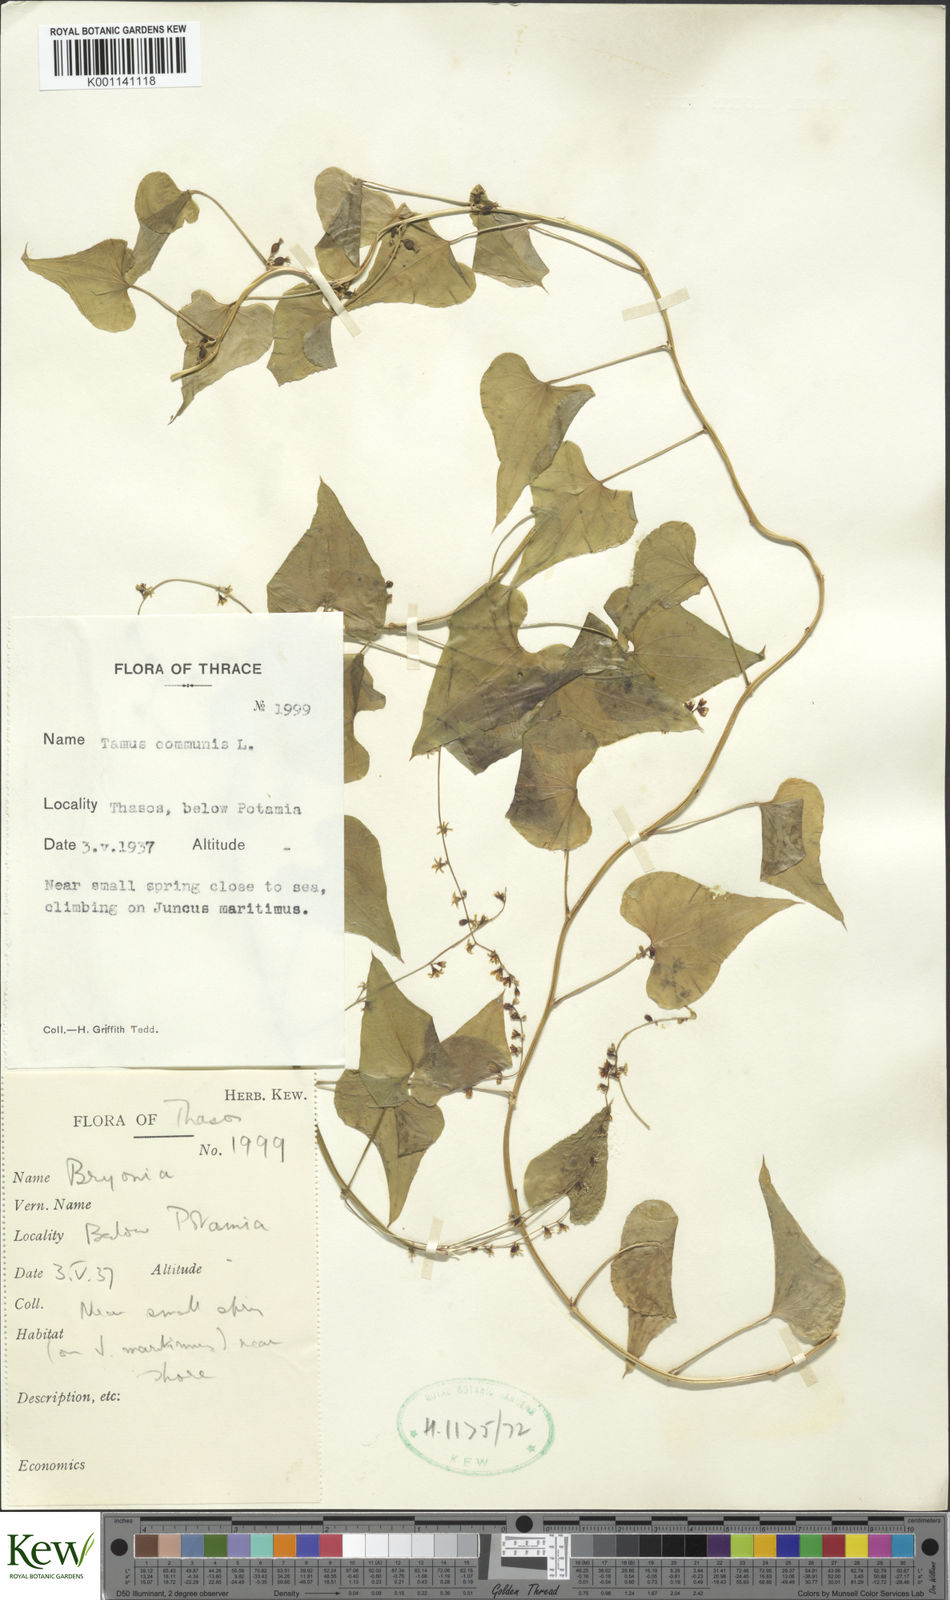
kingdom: Plantae
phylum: Tracheophyta
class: Liliopsida
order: Dioscoreales
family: Dioscoreaceae
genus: Dioscorea
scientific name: Dioscorea communis
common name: Black-bindweed
